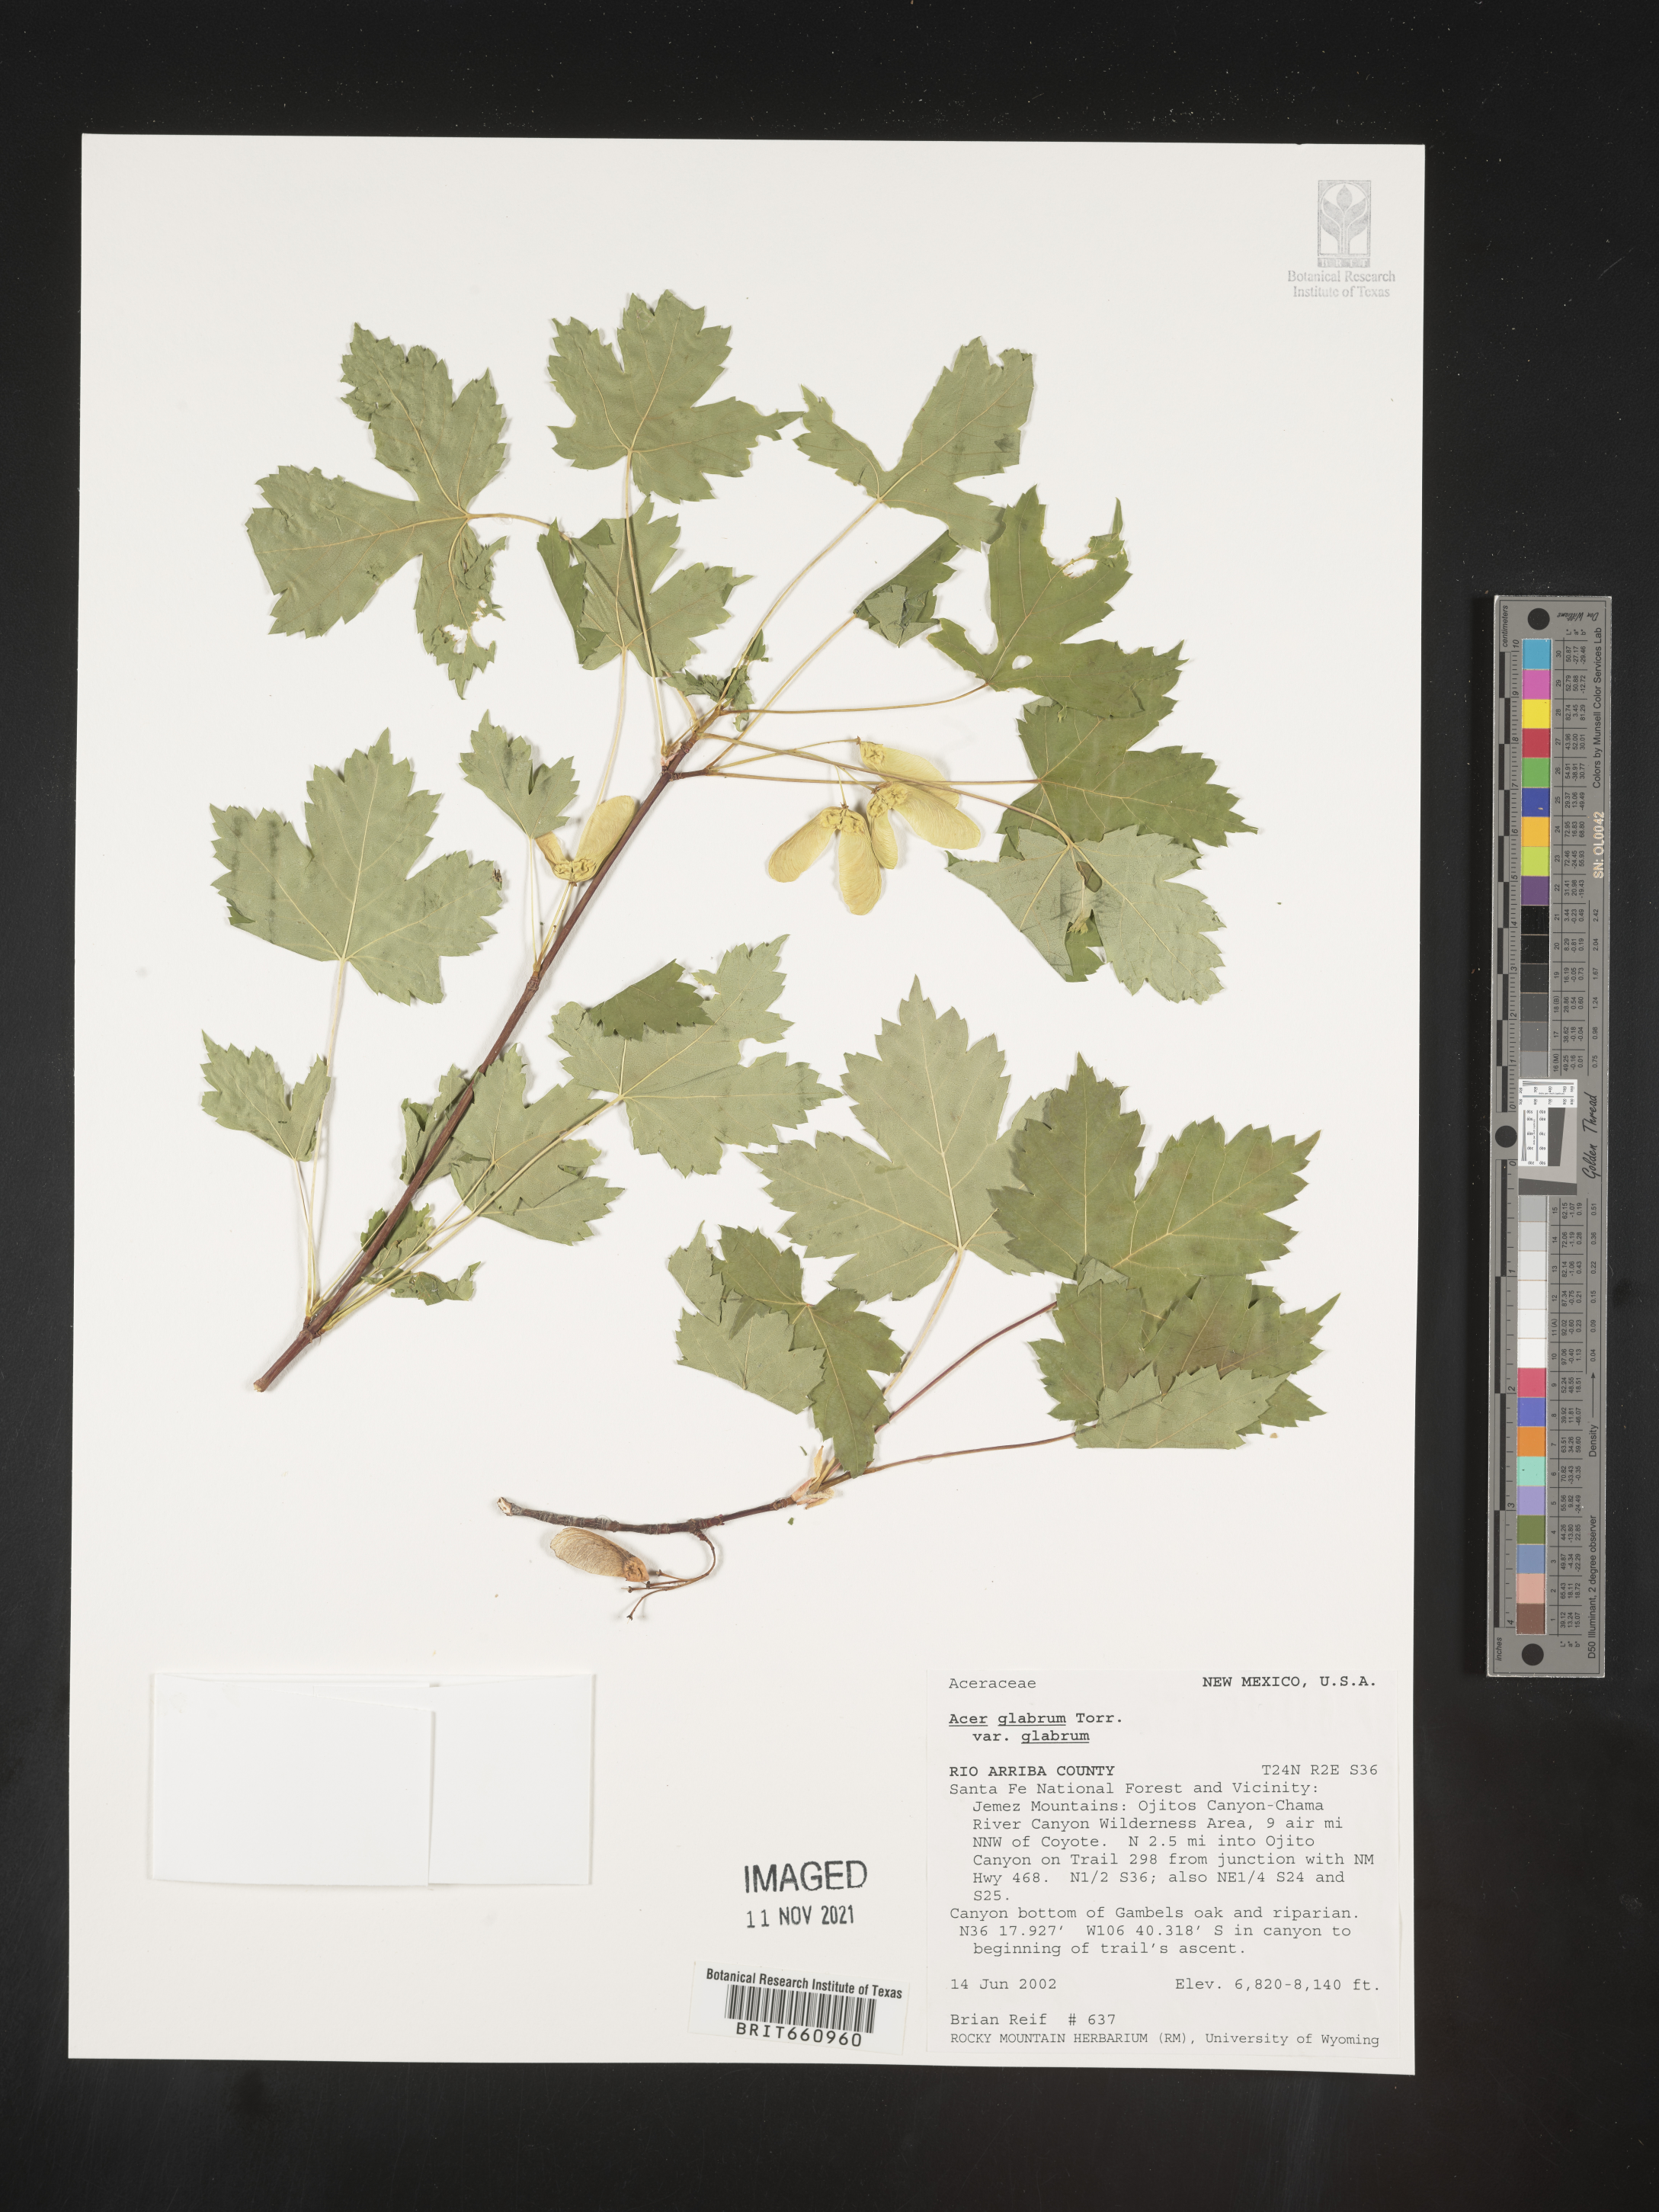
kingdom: Plantae
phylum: Tracheophyta
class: Magnoliopsida
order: Sapindales
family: Sapindaceae
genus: Acer
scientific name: Acer glabrum
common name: Rocky mountain maple
